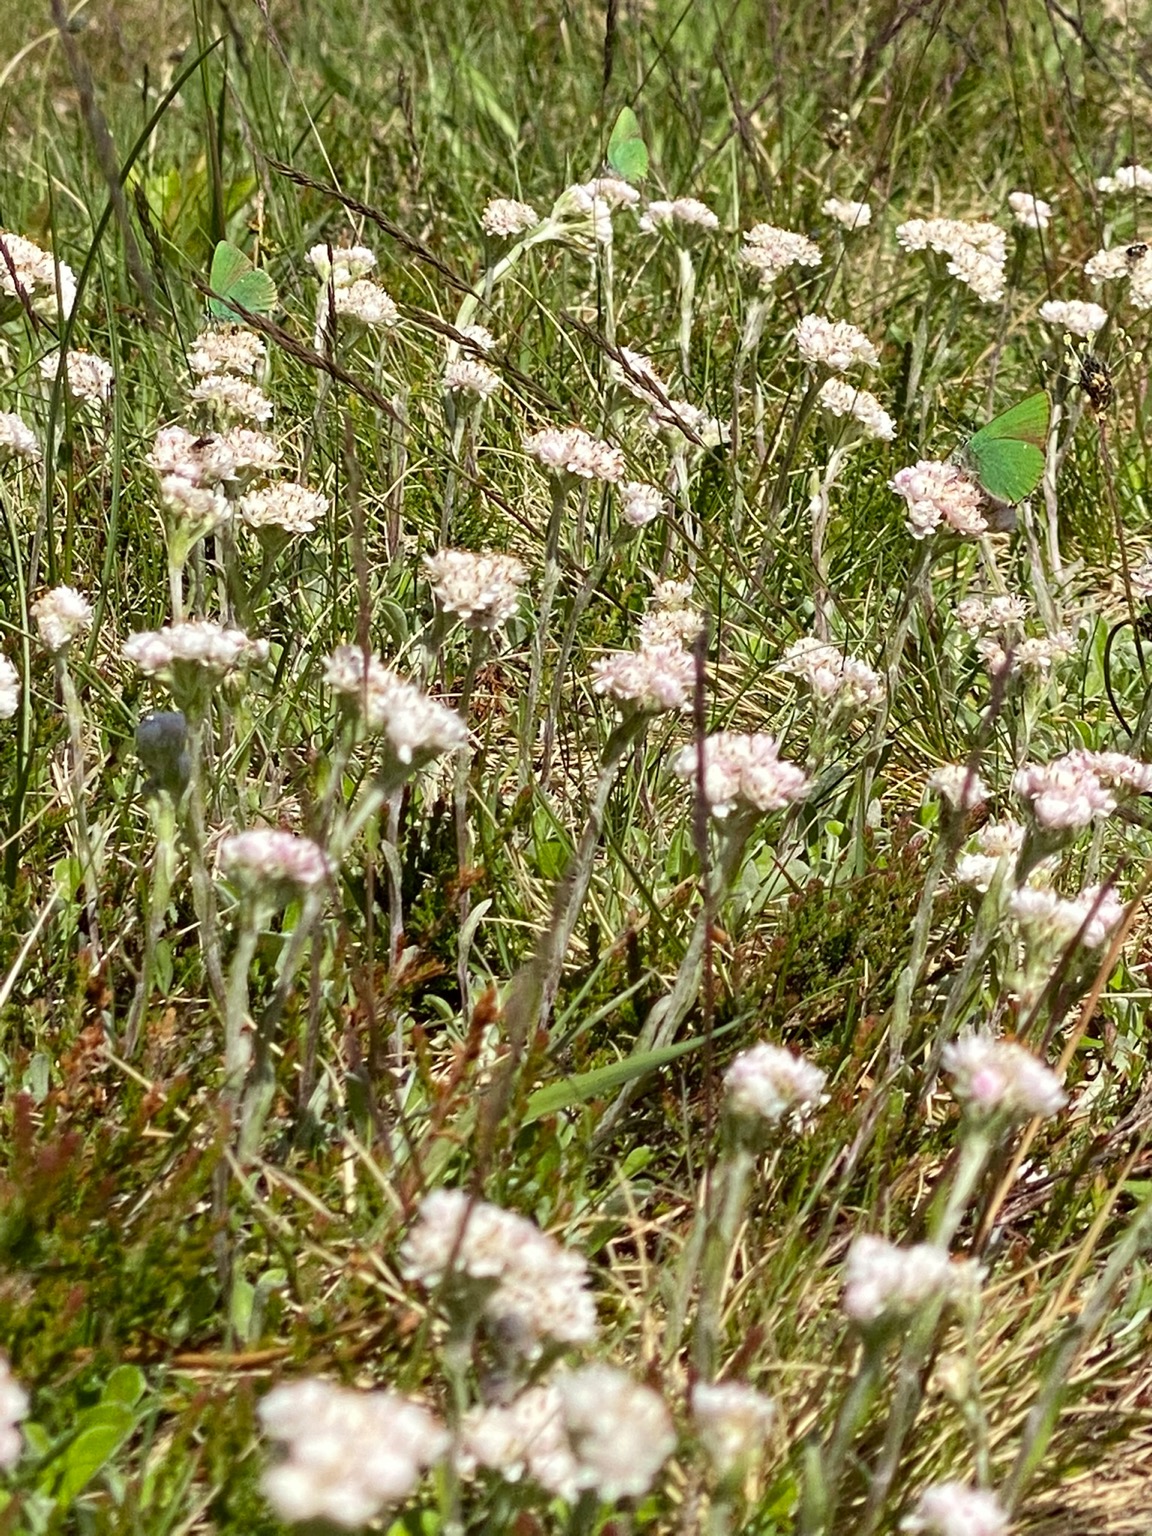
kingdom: Plantae
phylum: Tracheophyta
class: Magnoliopsida
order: Asterales
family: Asteraceae
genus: Antennaria
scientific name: Antennaria dioica
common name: Kattefod
